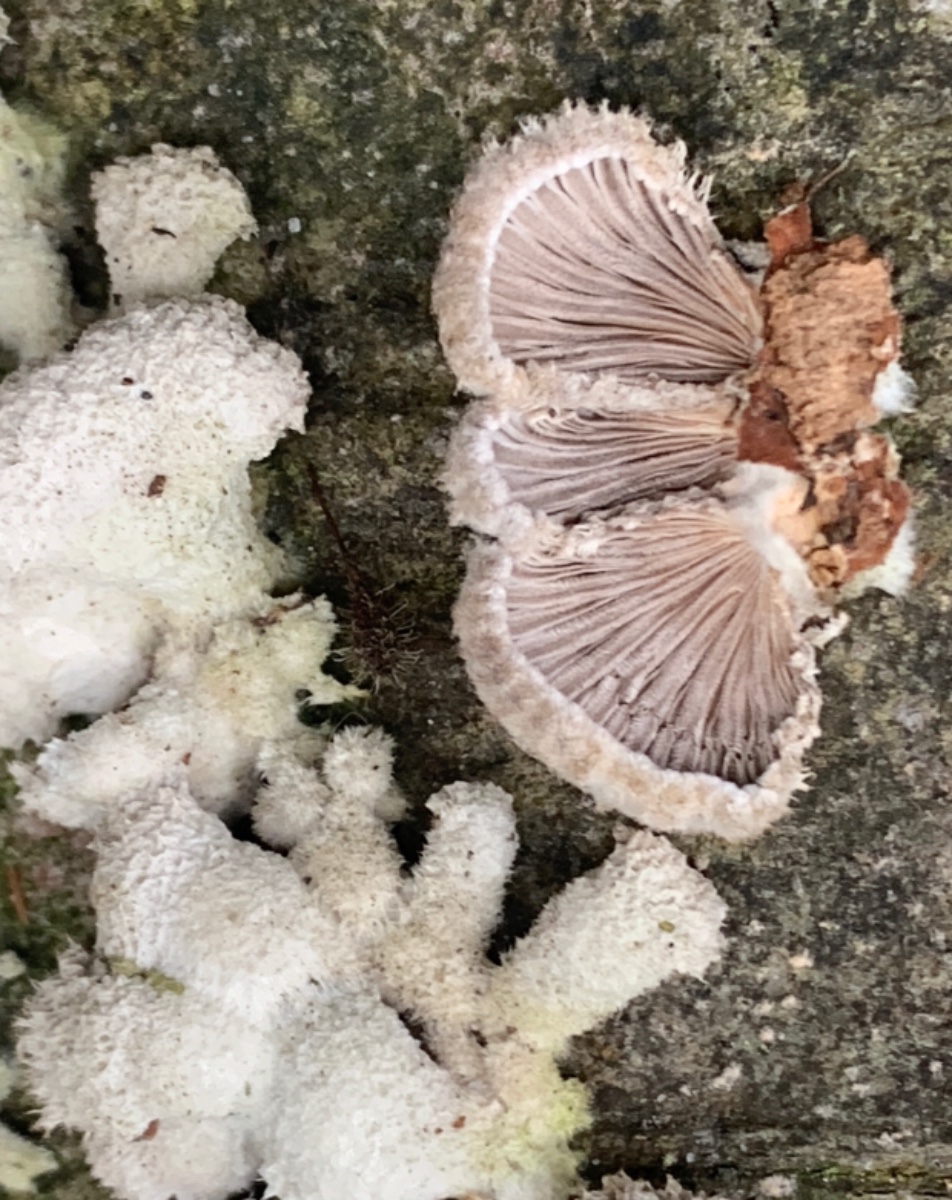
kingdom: Fungi
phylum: Basidiomycota
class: Agaricomycetes
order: Agaricales
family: Schizophyllaceae
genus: Schizophyllum
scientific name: Schizophyllum commune
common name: kløvblad
